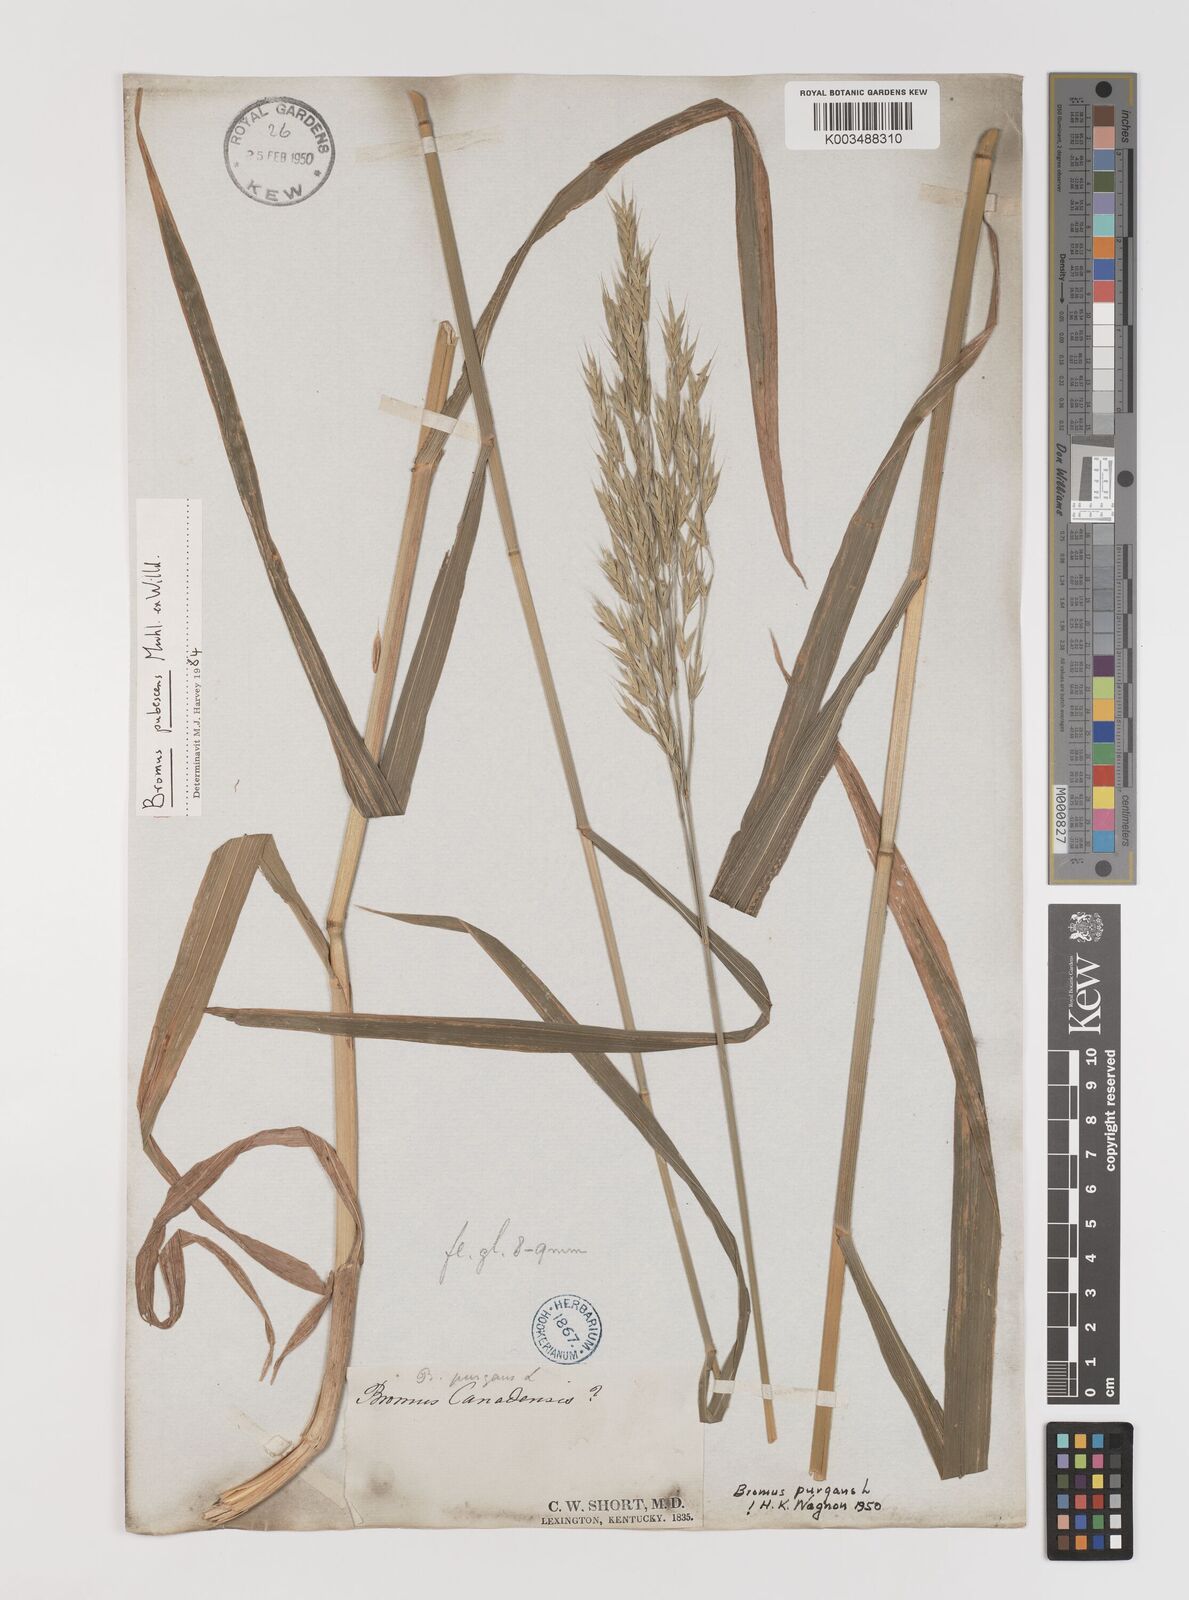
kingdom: Plantae
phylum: Tracheophyta
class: Liliopsida
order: Poales
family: Poaceae
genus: Bromus
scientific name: Bromus pubescens
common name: Hairy wood brome grass
